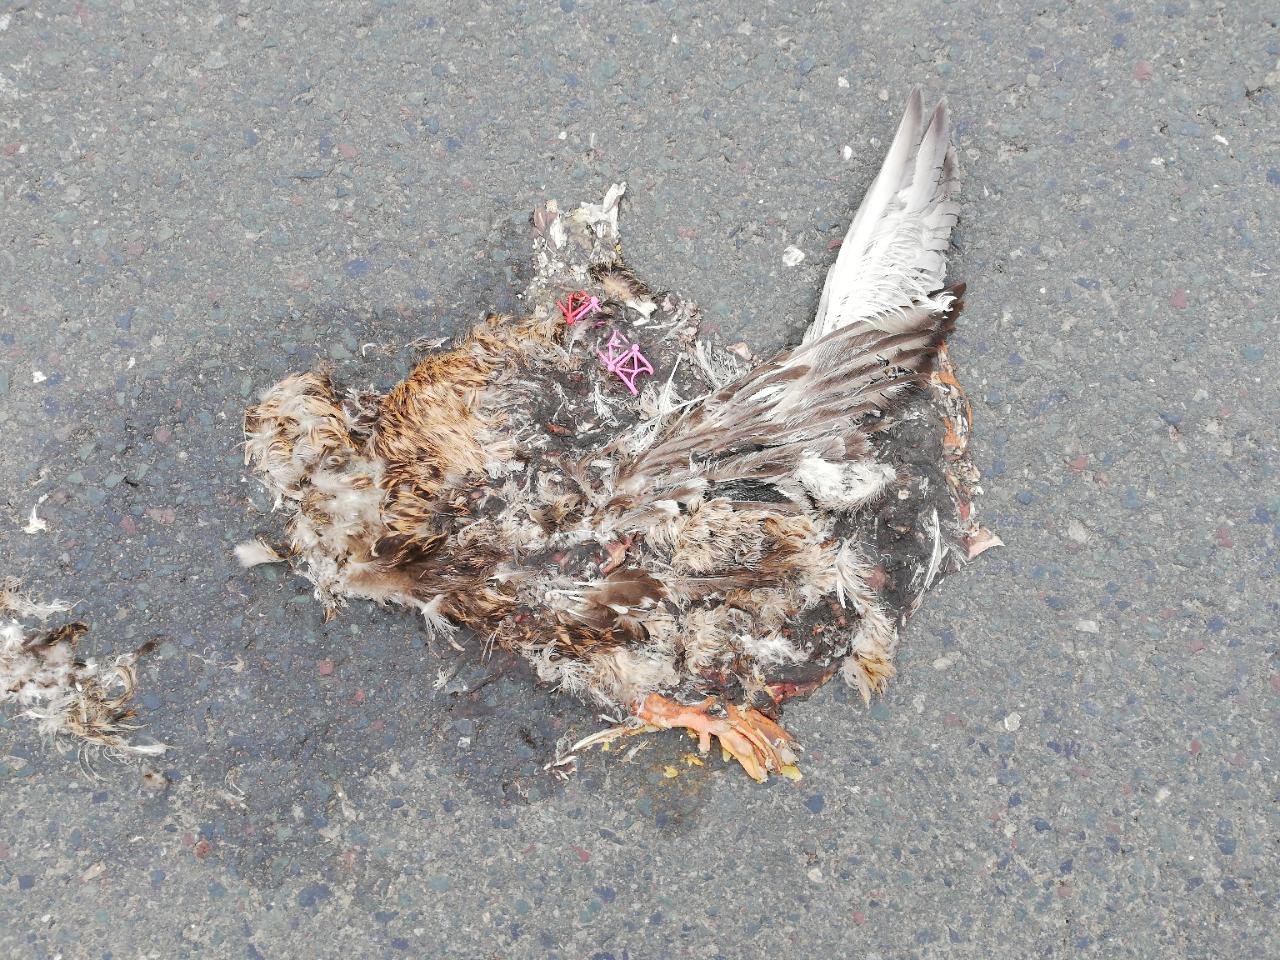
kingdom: Animalia
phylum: Chordata
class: Aves
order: Anseriformes
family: Anatidae
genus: Anas
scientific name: Anas platyrhynchos
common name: Mallard
